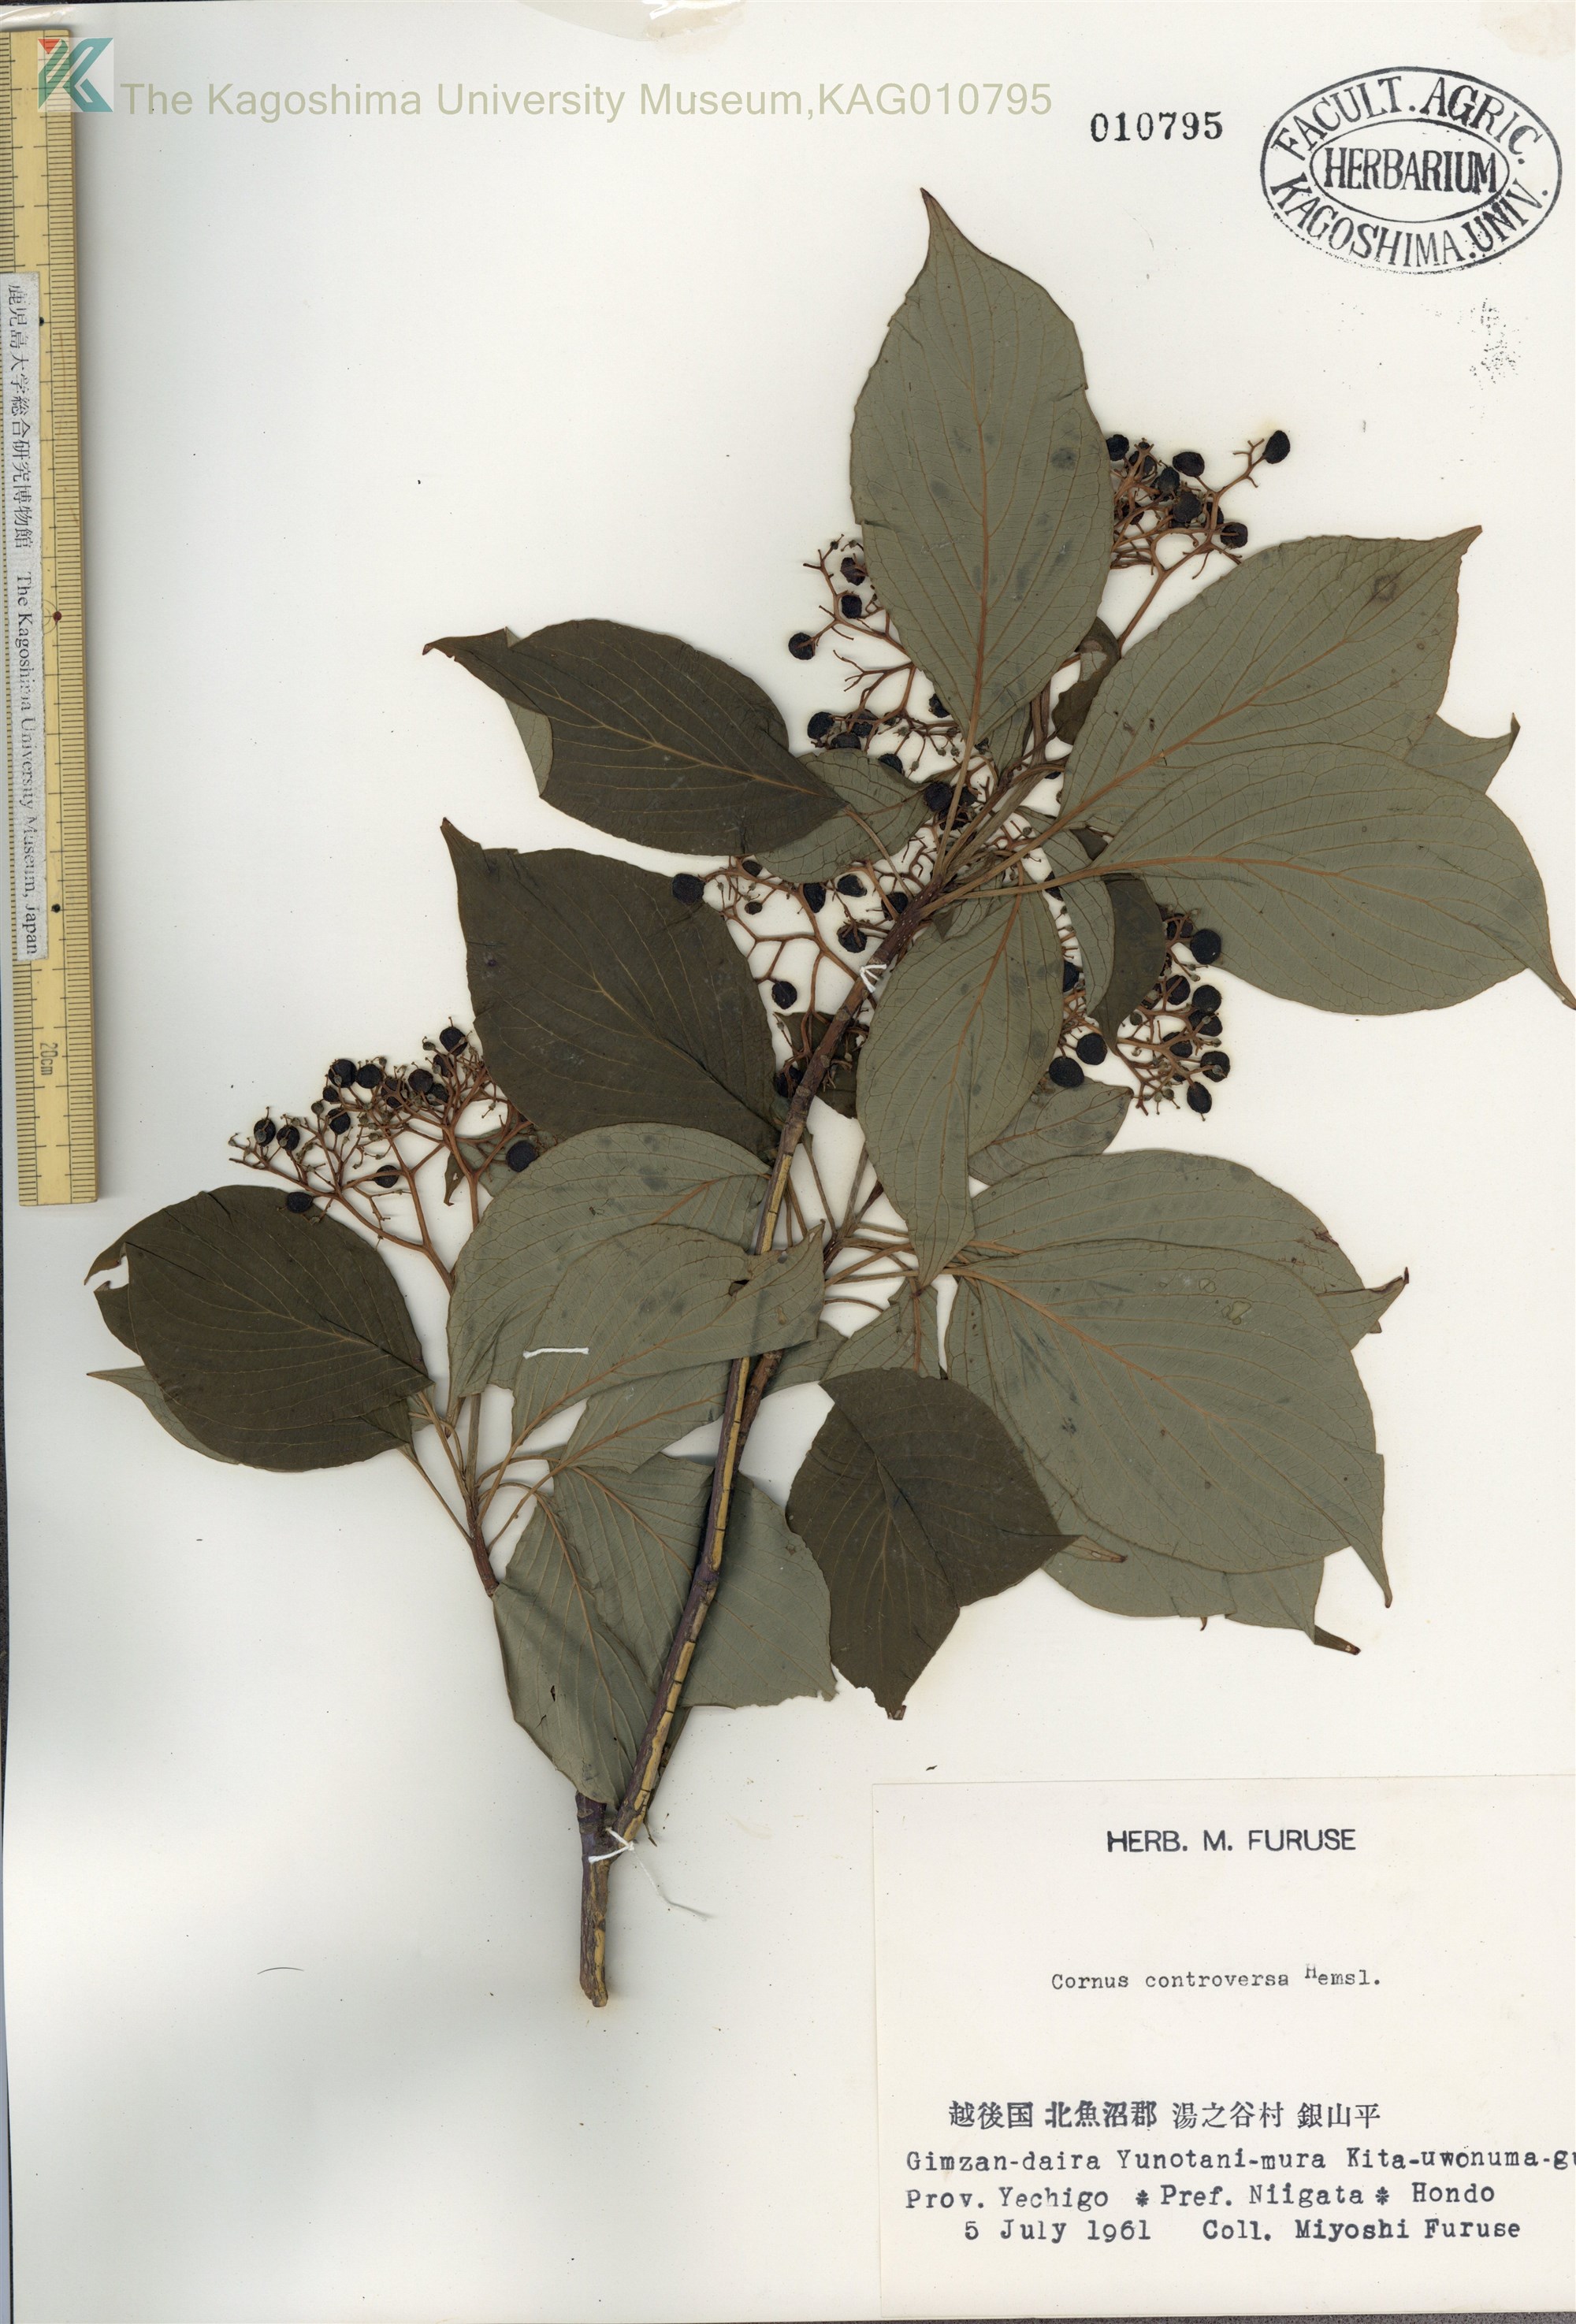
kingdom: Plantae
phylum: Tracheophyta
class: Magnoliopsida
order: Cornales
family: Cornaceae
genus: Cornus
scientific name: Cornus controversa
